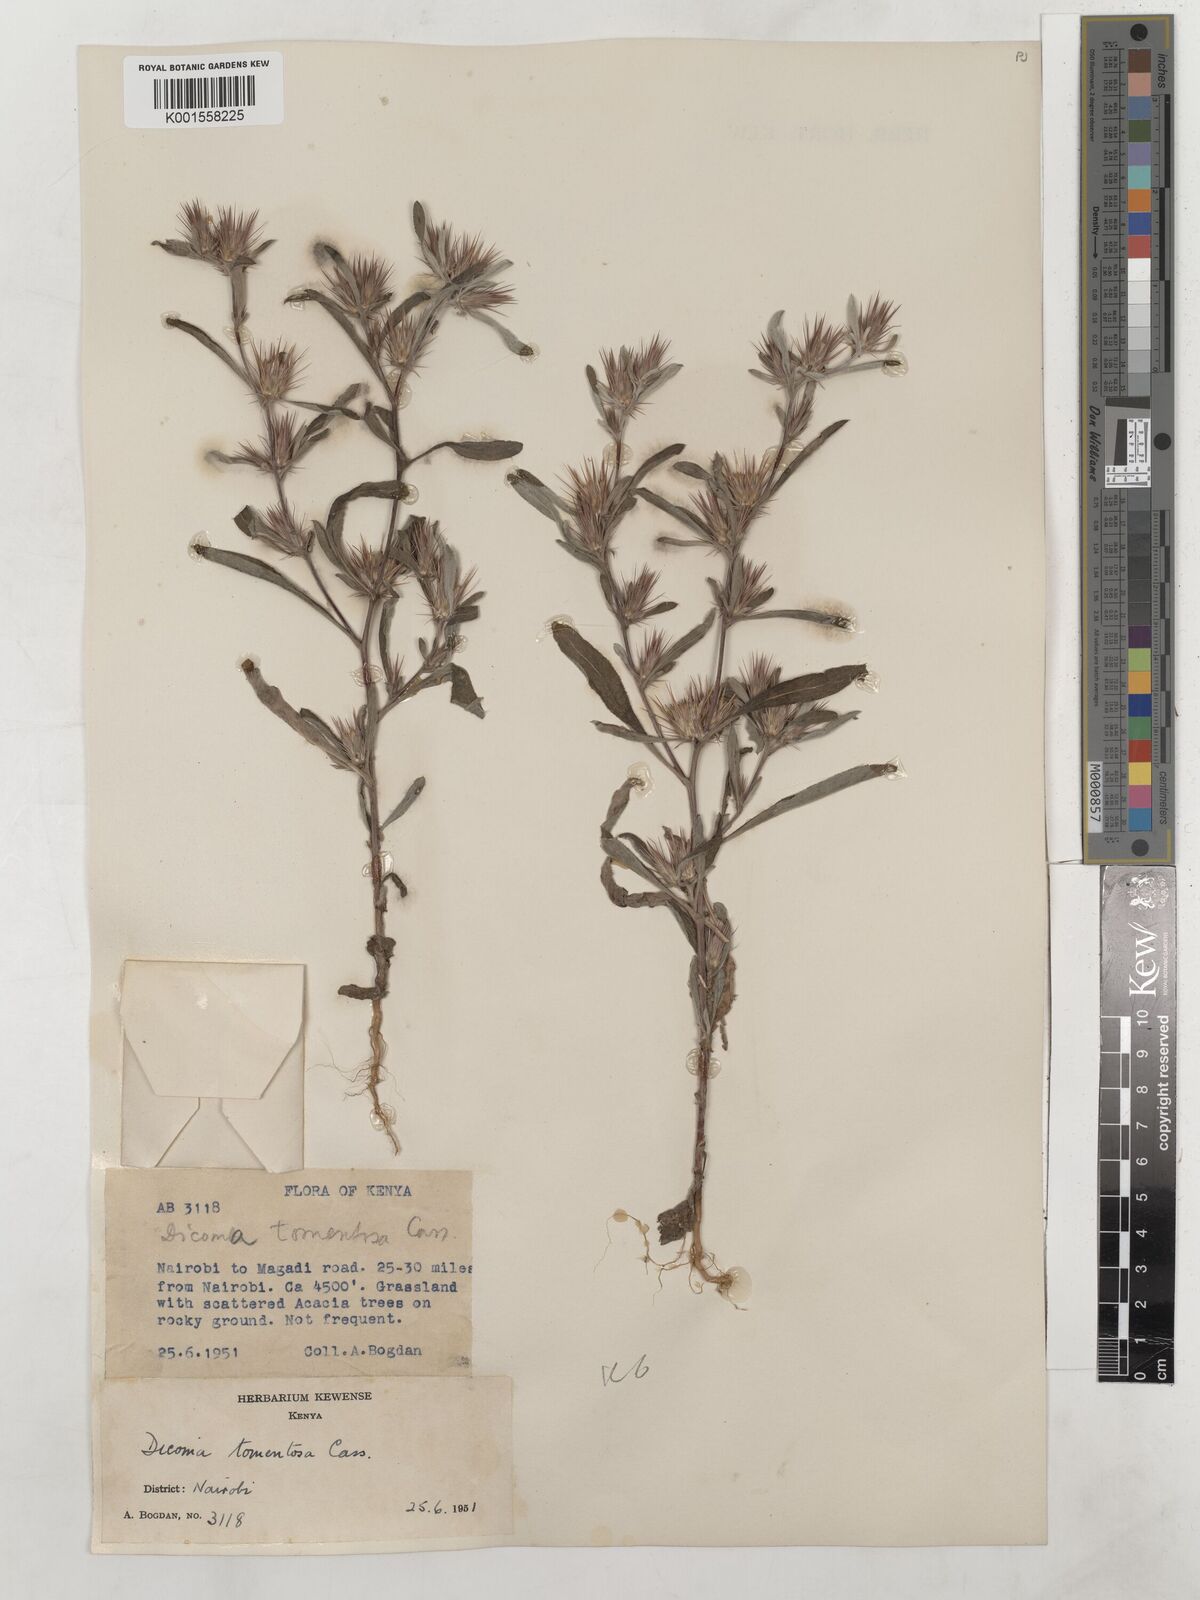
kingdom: Plantae
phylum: Tracheophyta
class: Magnoliopsida
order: Asterales
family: Asteraceae
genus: Dicoma
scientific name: Dicoma tomentosa
